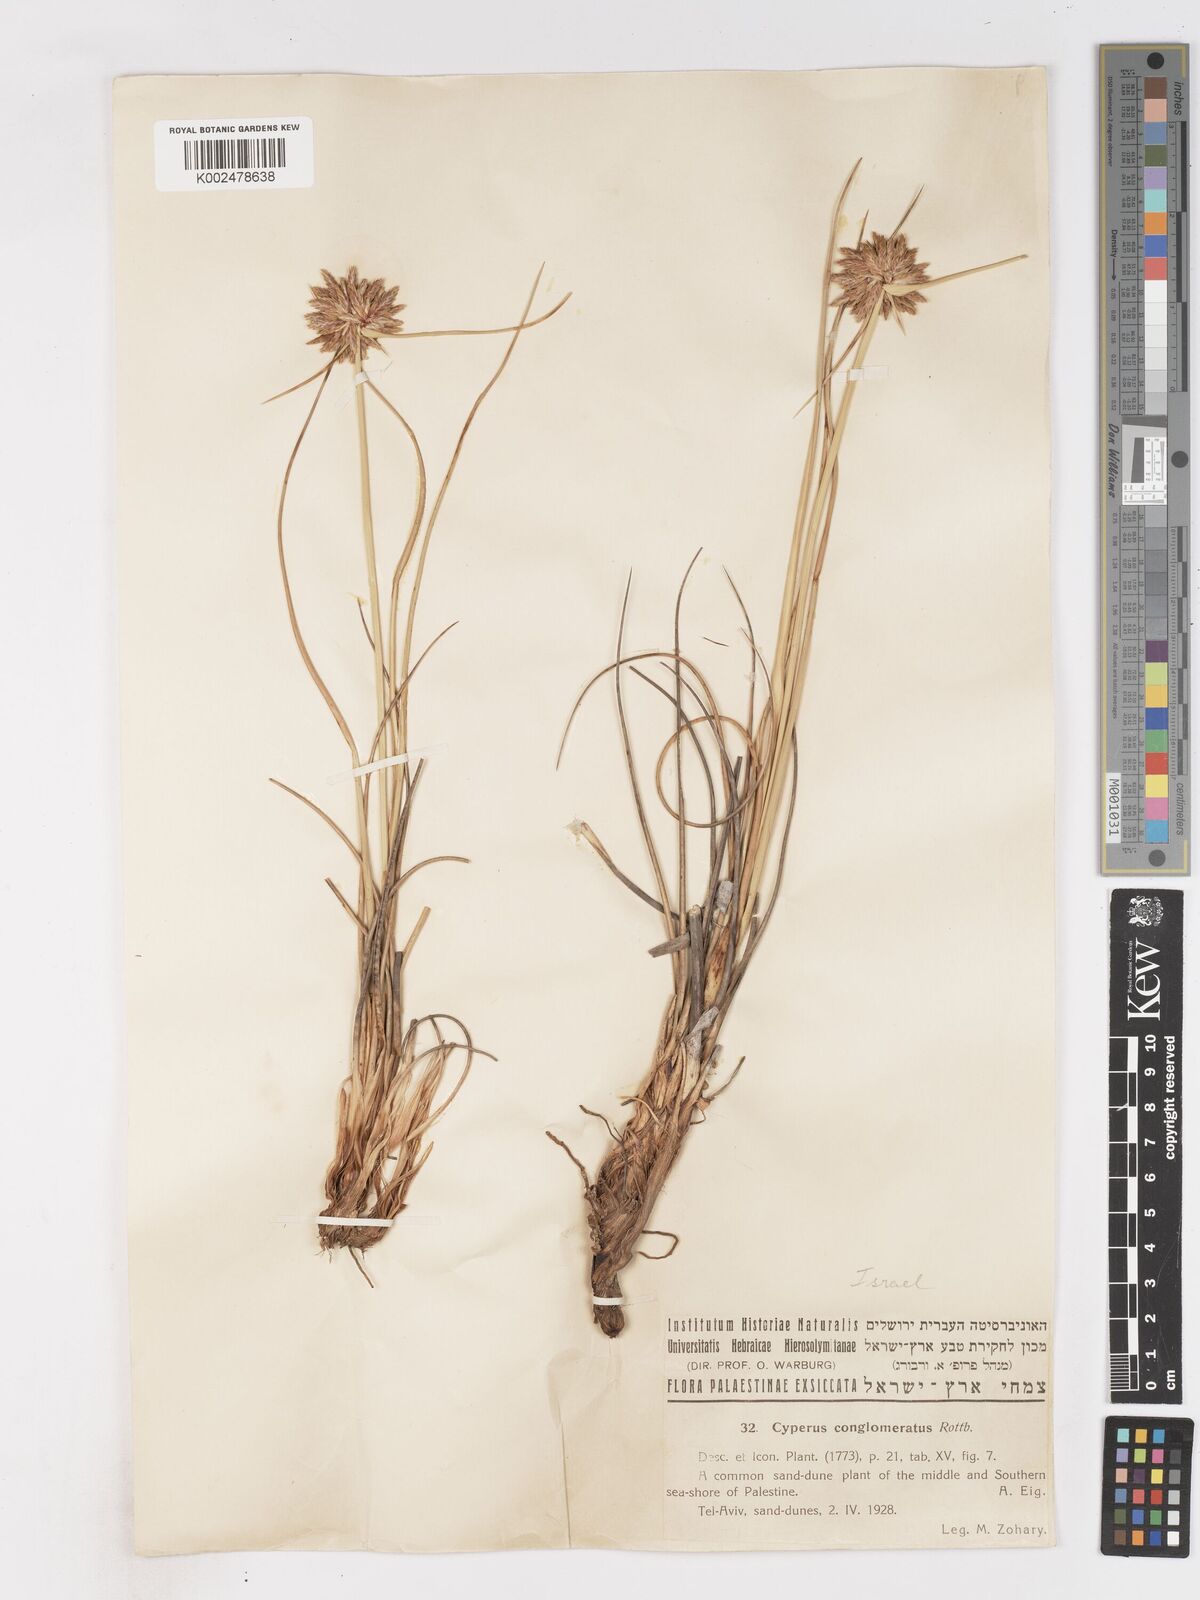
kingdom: Plantae
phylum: Tracheophyta
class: Liliopsida
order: Poales
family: Cyperaceae
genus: Cyperus
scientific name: Cyperus conglomeratus
